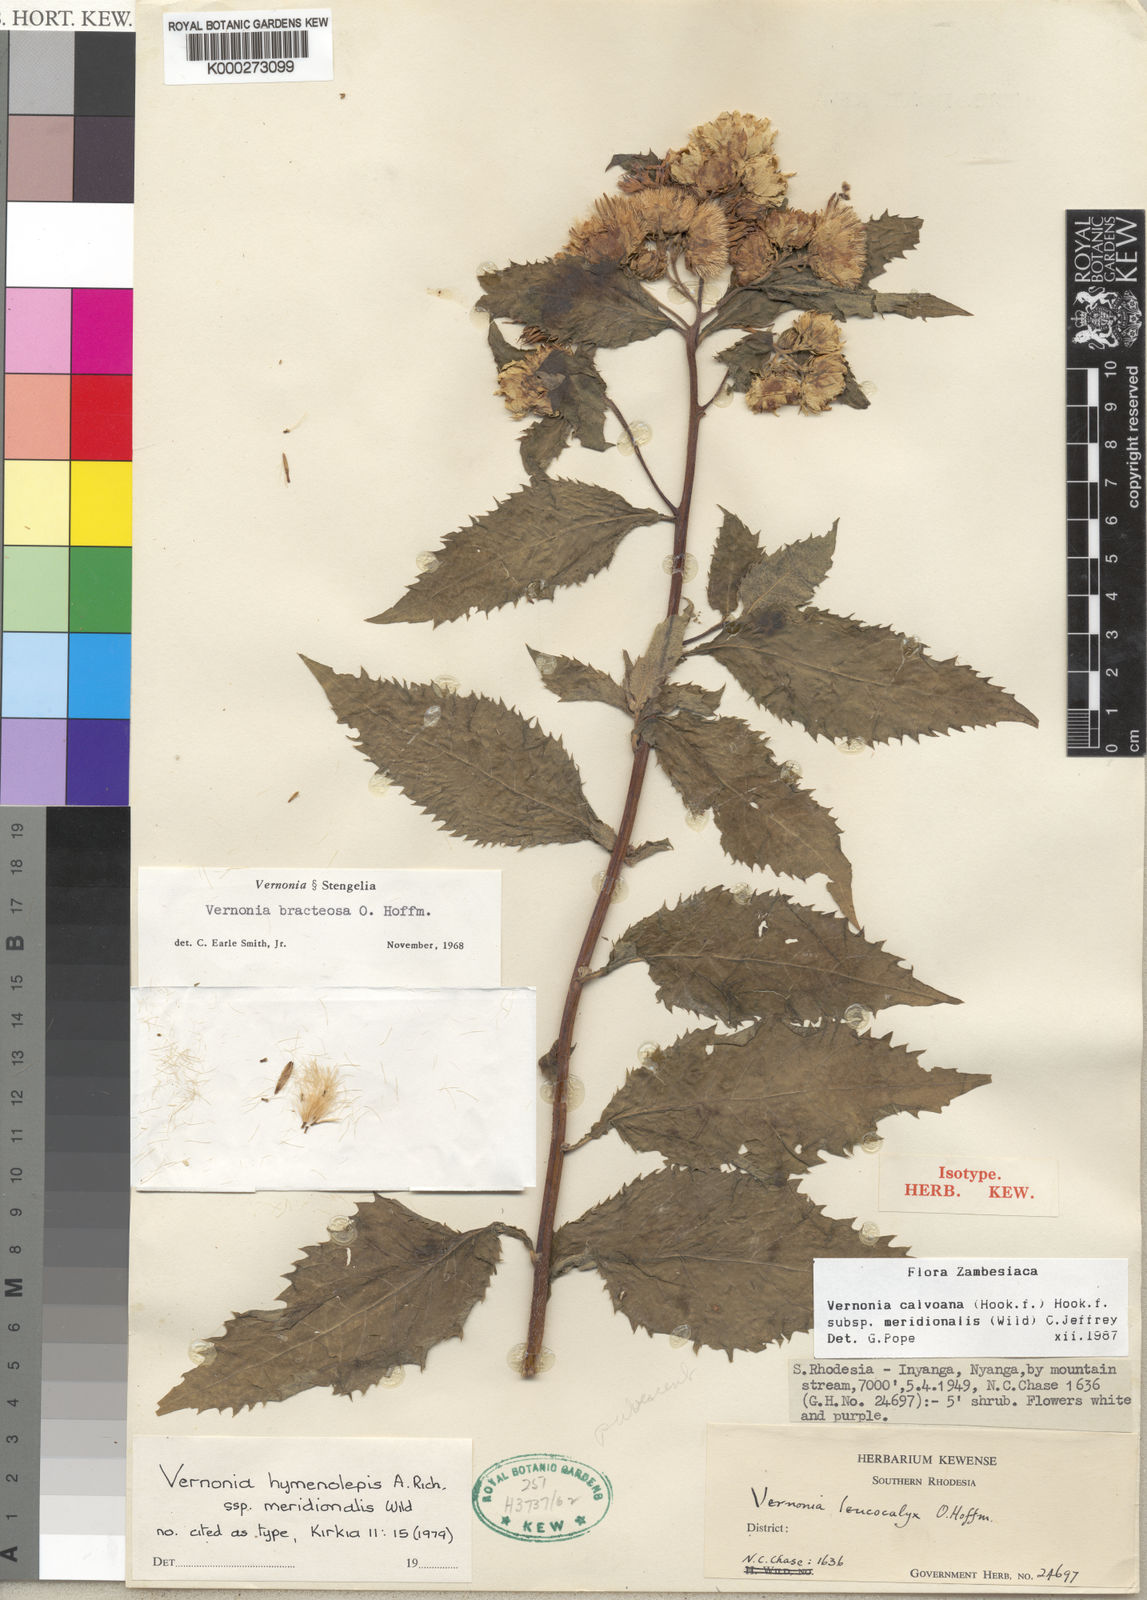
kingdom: Plantae
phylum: Tracheophyta
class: Magnoliopsida
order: Asterales
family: Asteraceae
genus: Baccharoides
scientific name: Baccharoides calvoana
